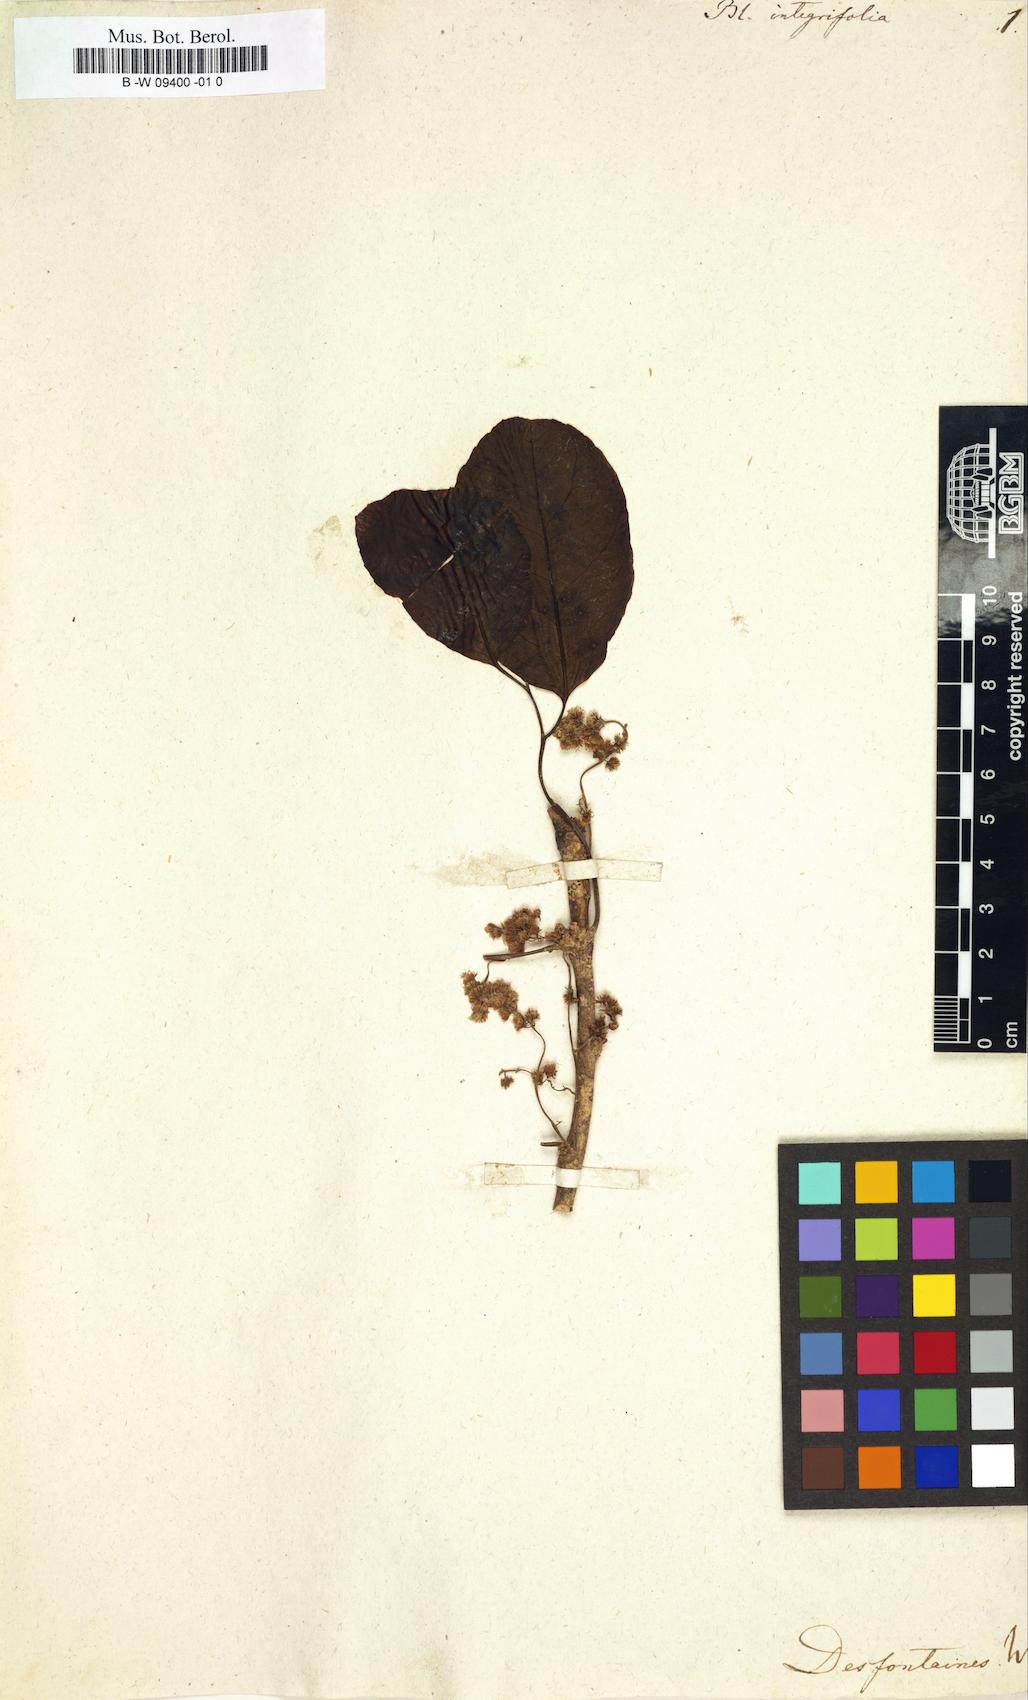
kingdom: Plantae
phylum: Tracheophyta
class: Magnoliopsida
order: Malpighiales
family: Salicaceae
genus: Homalium
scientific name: Homalium integrifolium
